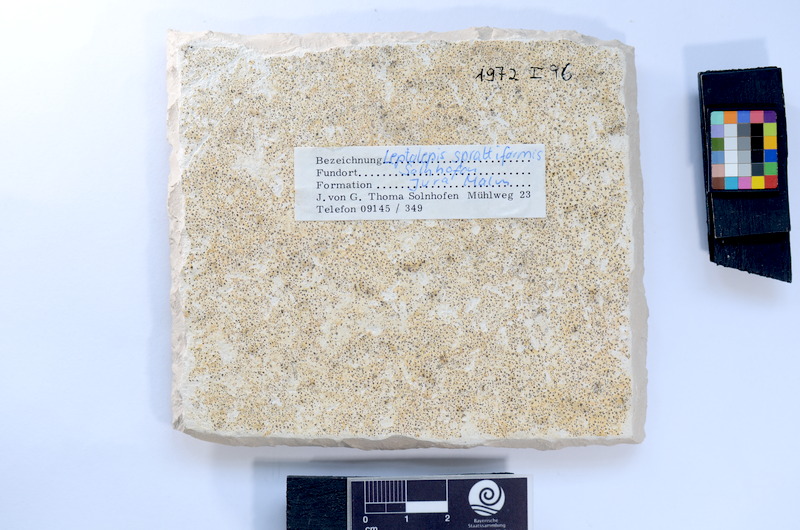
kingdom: Animalia
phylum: Chordata
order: Salmoniformes
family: Orthogonikleithridae
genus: Leptolepides
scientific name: Leptolepides
